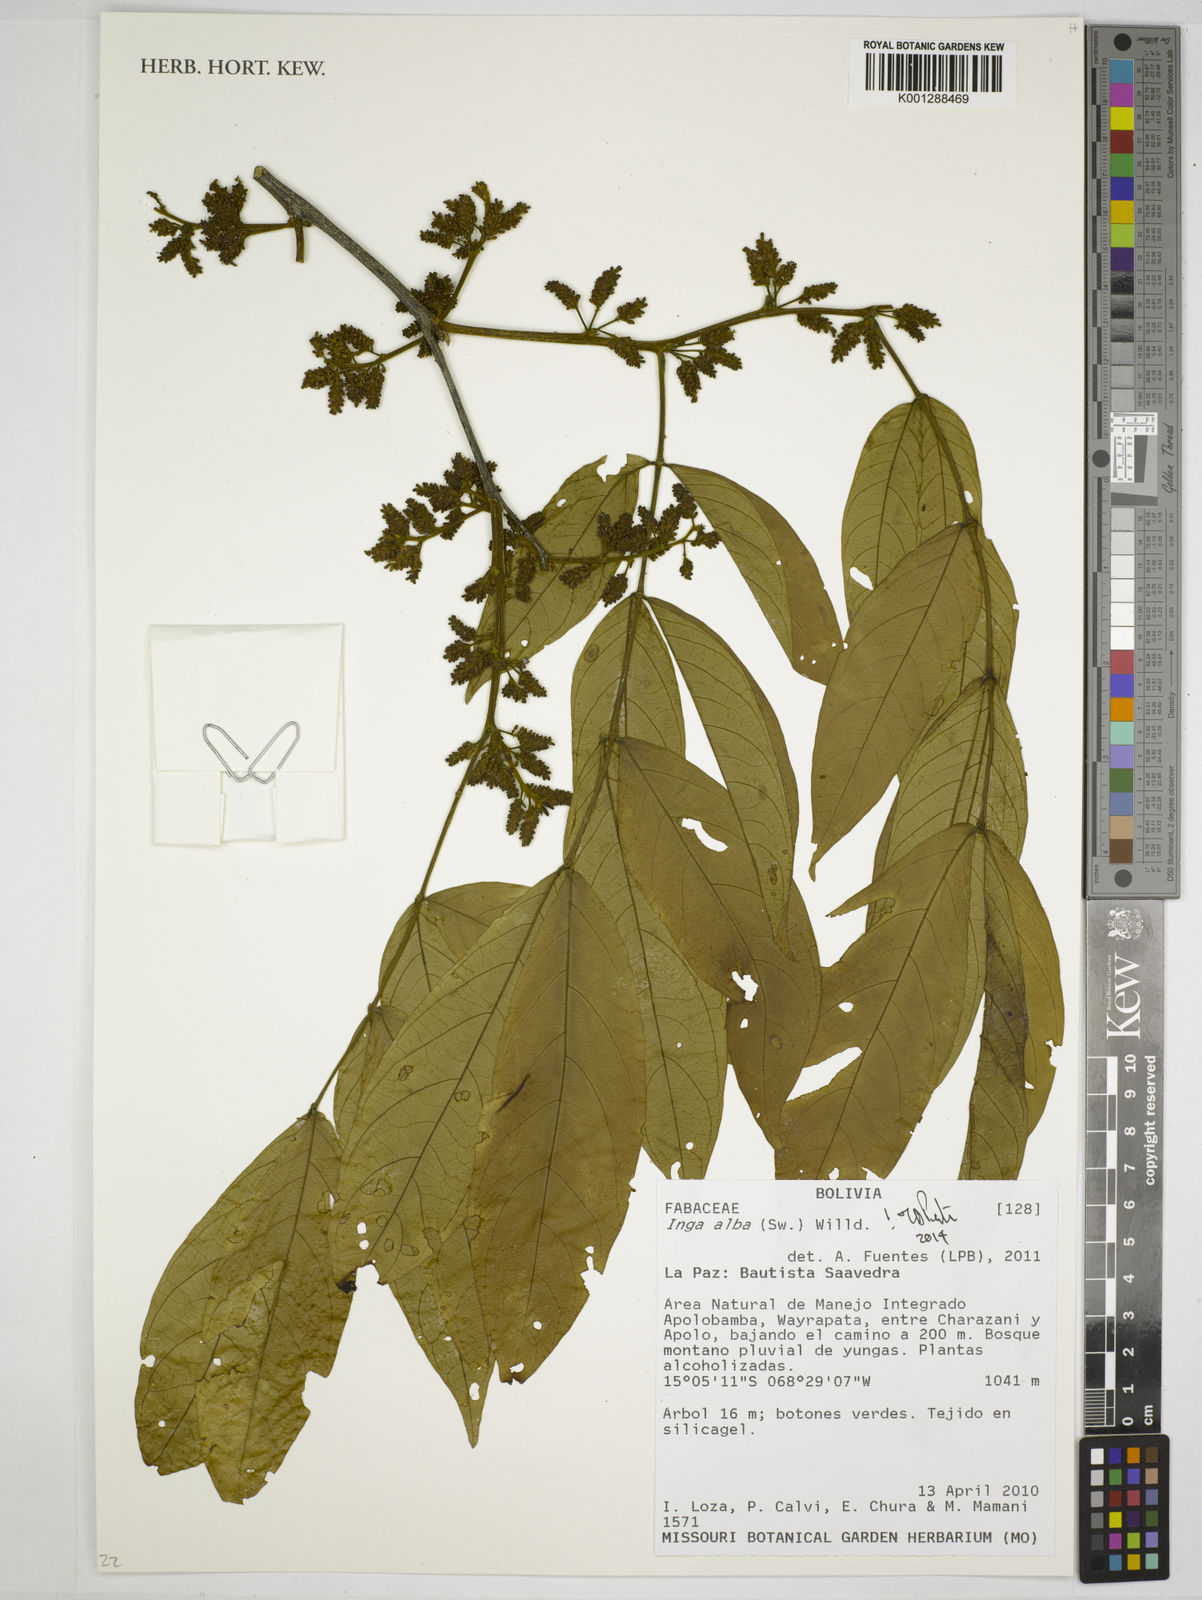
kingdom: Plantae
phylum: Tracheophyta
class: Magnoliopsida
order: Fabales
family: Fabaceae
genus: Inga
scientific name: Inga alba
